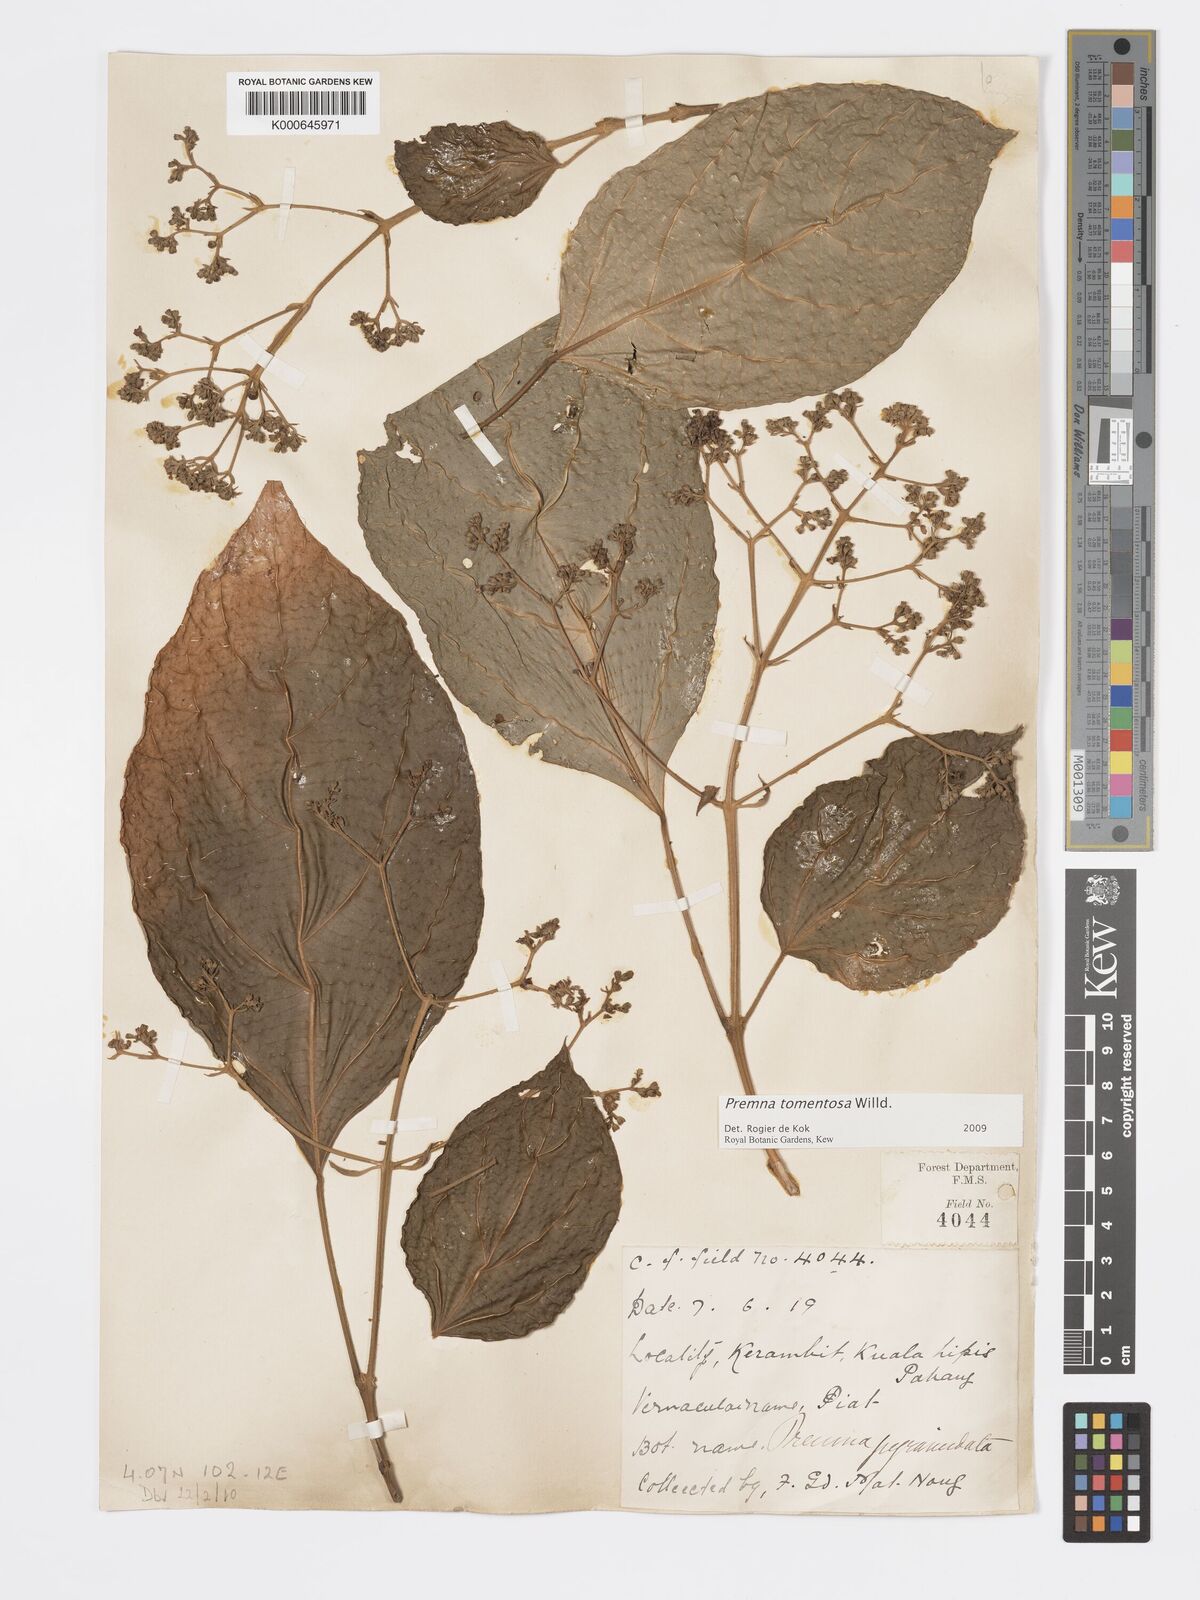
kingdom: Plantae
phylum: Tracheophyta
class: Magnoliopsida
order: Lamiales
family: Lamiaceae
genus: Premna
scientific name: Premna tomentosa
